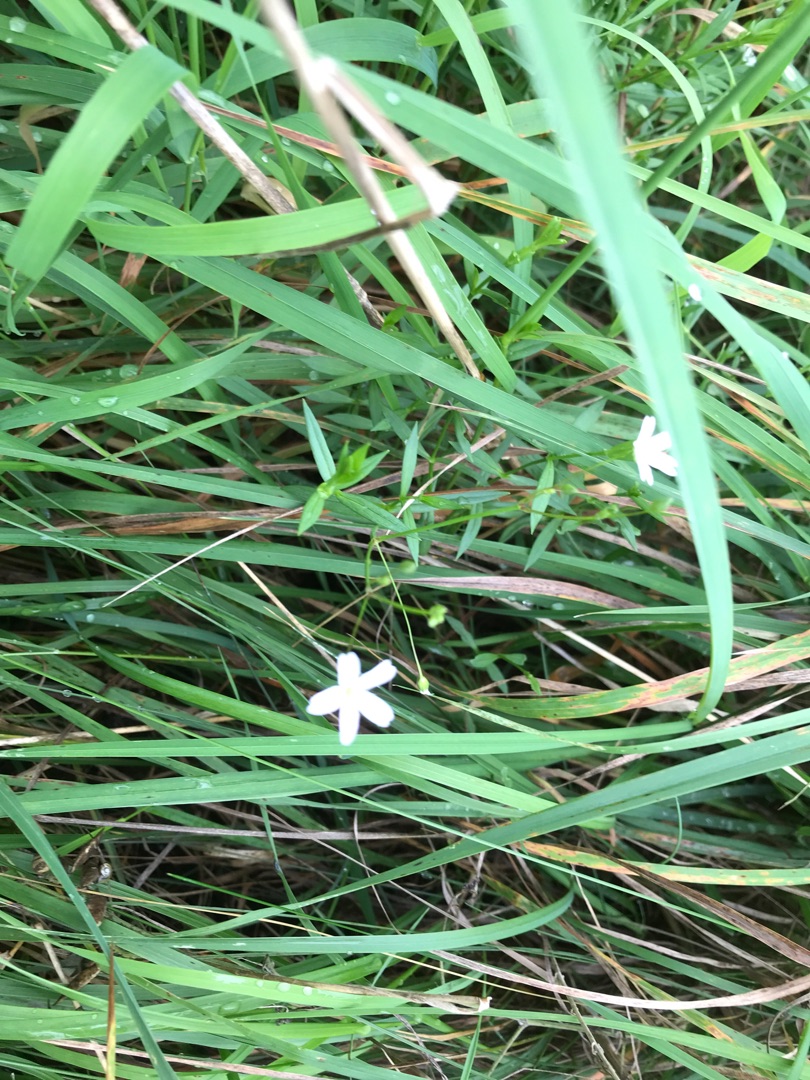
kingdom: Plantae
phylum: Tracheophyta
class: Magnoliopsida
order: Caryophyllales
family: Caryophyllaceae
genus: Stellaria
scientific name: Stellaria graminea
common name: Græsbladet fladstjerne
